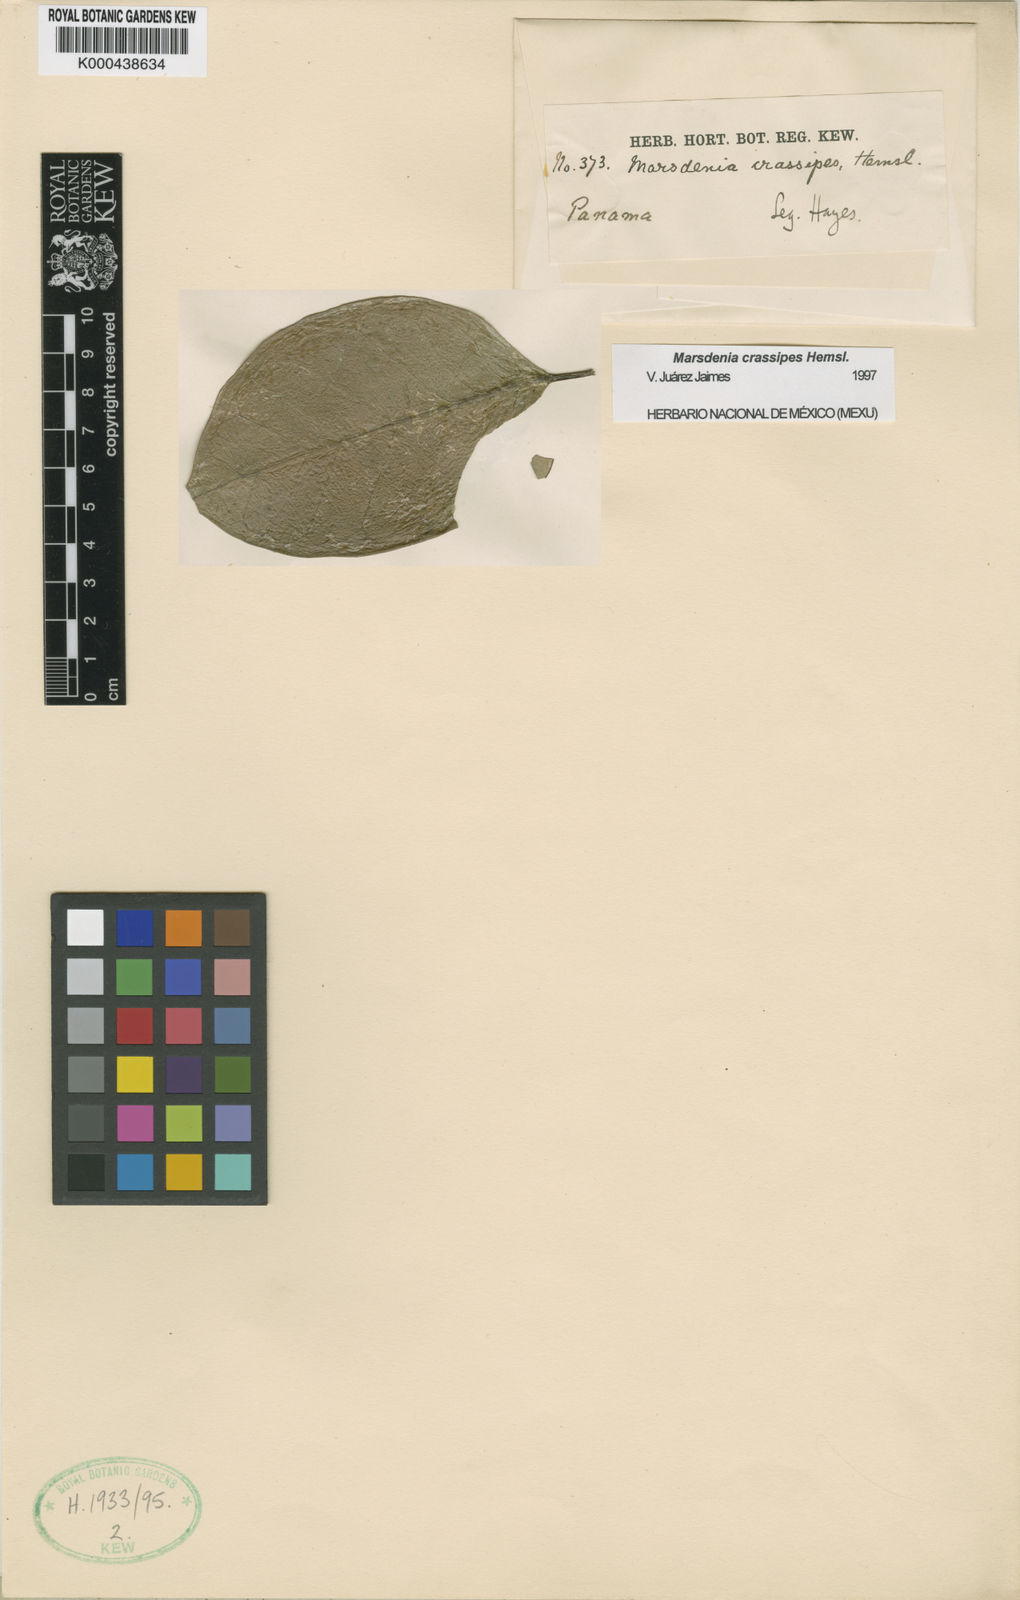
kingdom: Plantae
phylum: Tracheophyta
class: Magnoliopsida
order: Gentianales
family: Apocynaceae
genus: Ruehssia
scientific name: Ruehssia crassipes
